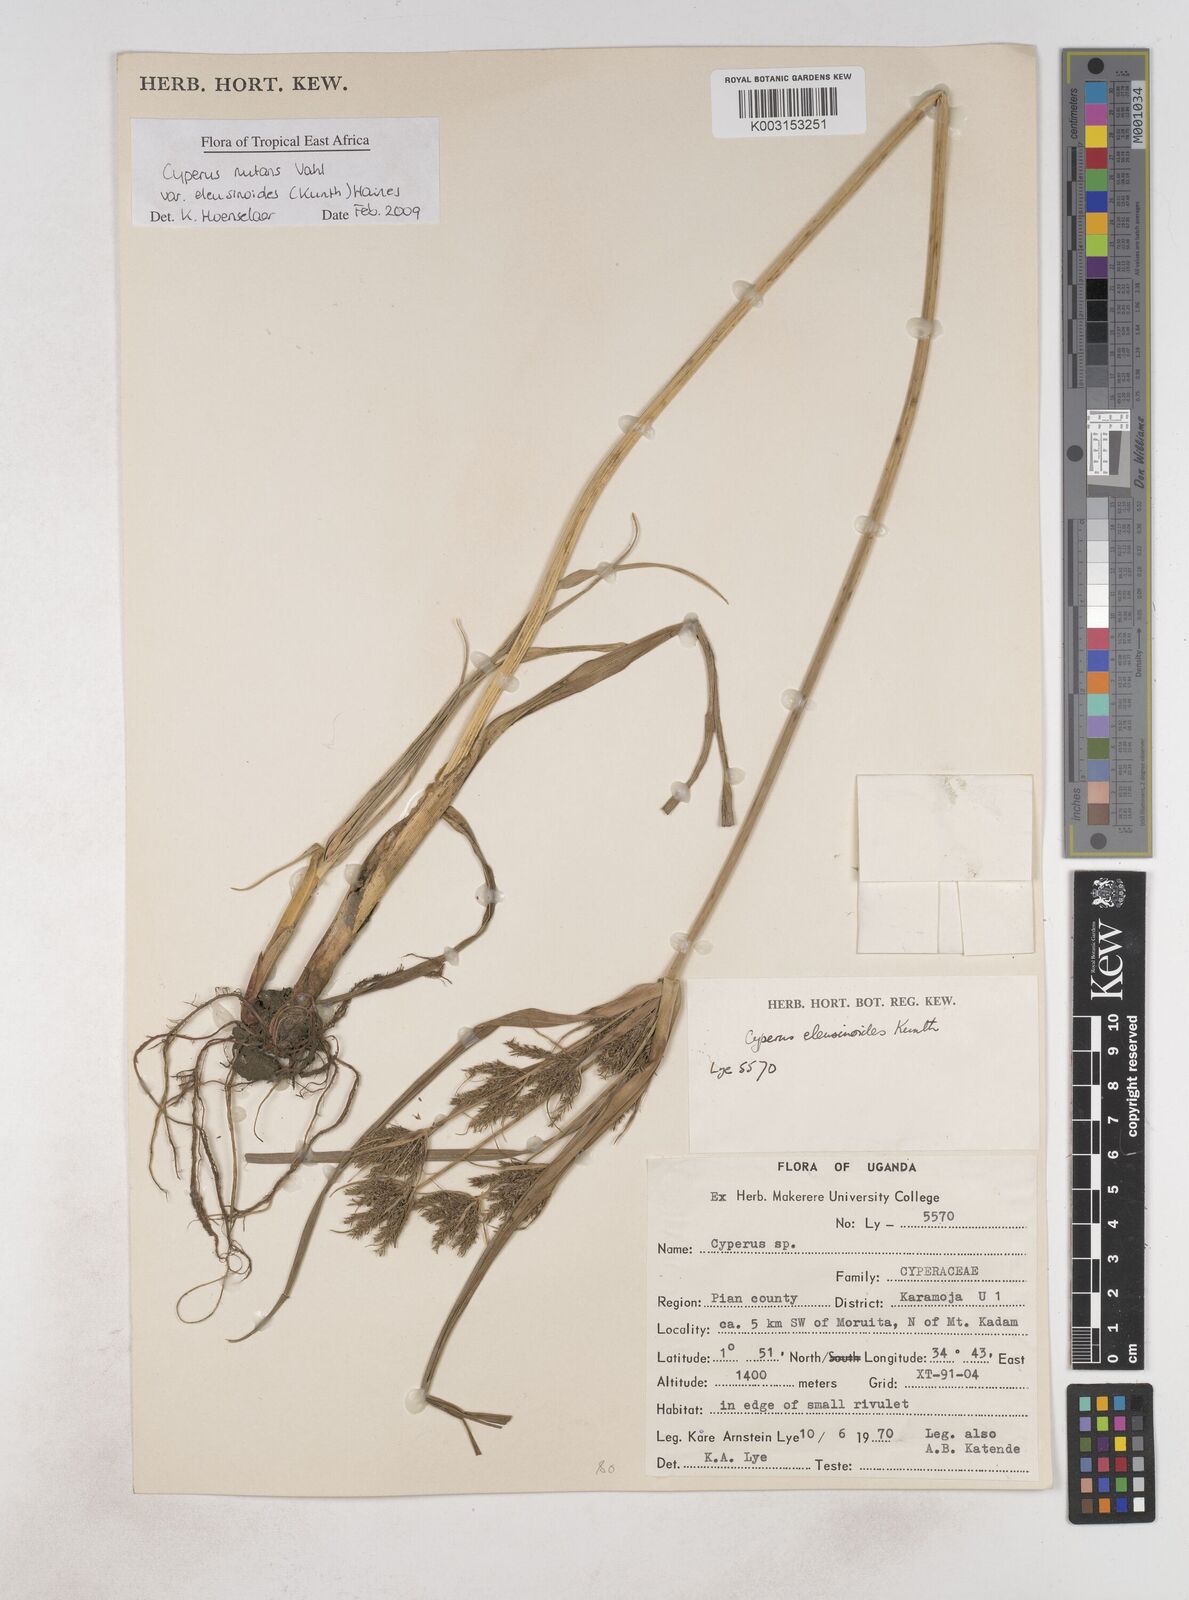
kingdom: Plantae
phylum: Tracheophyta
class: Liliopsida
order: Poales
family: Cyperaceae
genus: Cyperus
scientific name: Cyperus nutans
